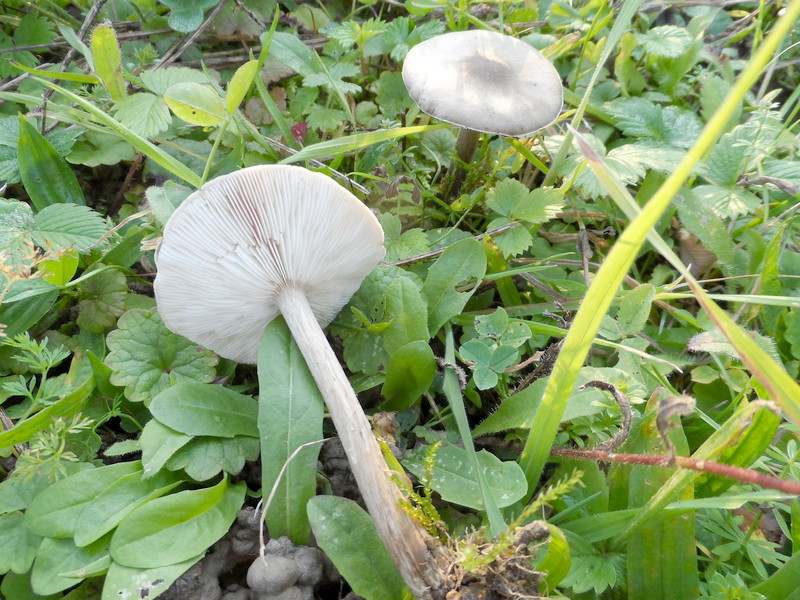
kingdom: Fungi
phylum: Basidiomycota
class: Agaricomycetes
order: Agaricales
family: Tricholomataceae
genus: Melanoleuca
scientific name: Melanoleuca exscissa
